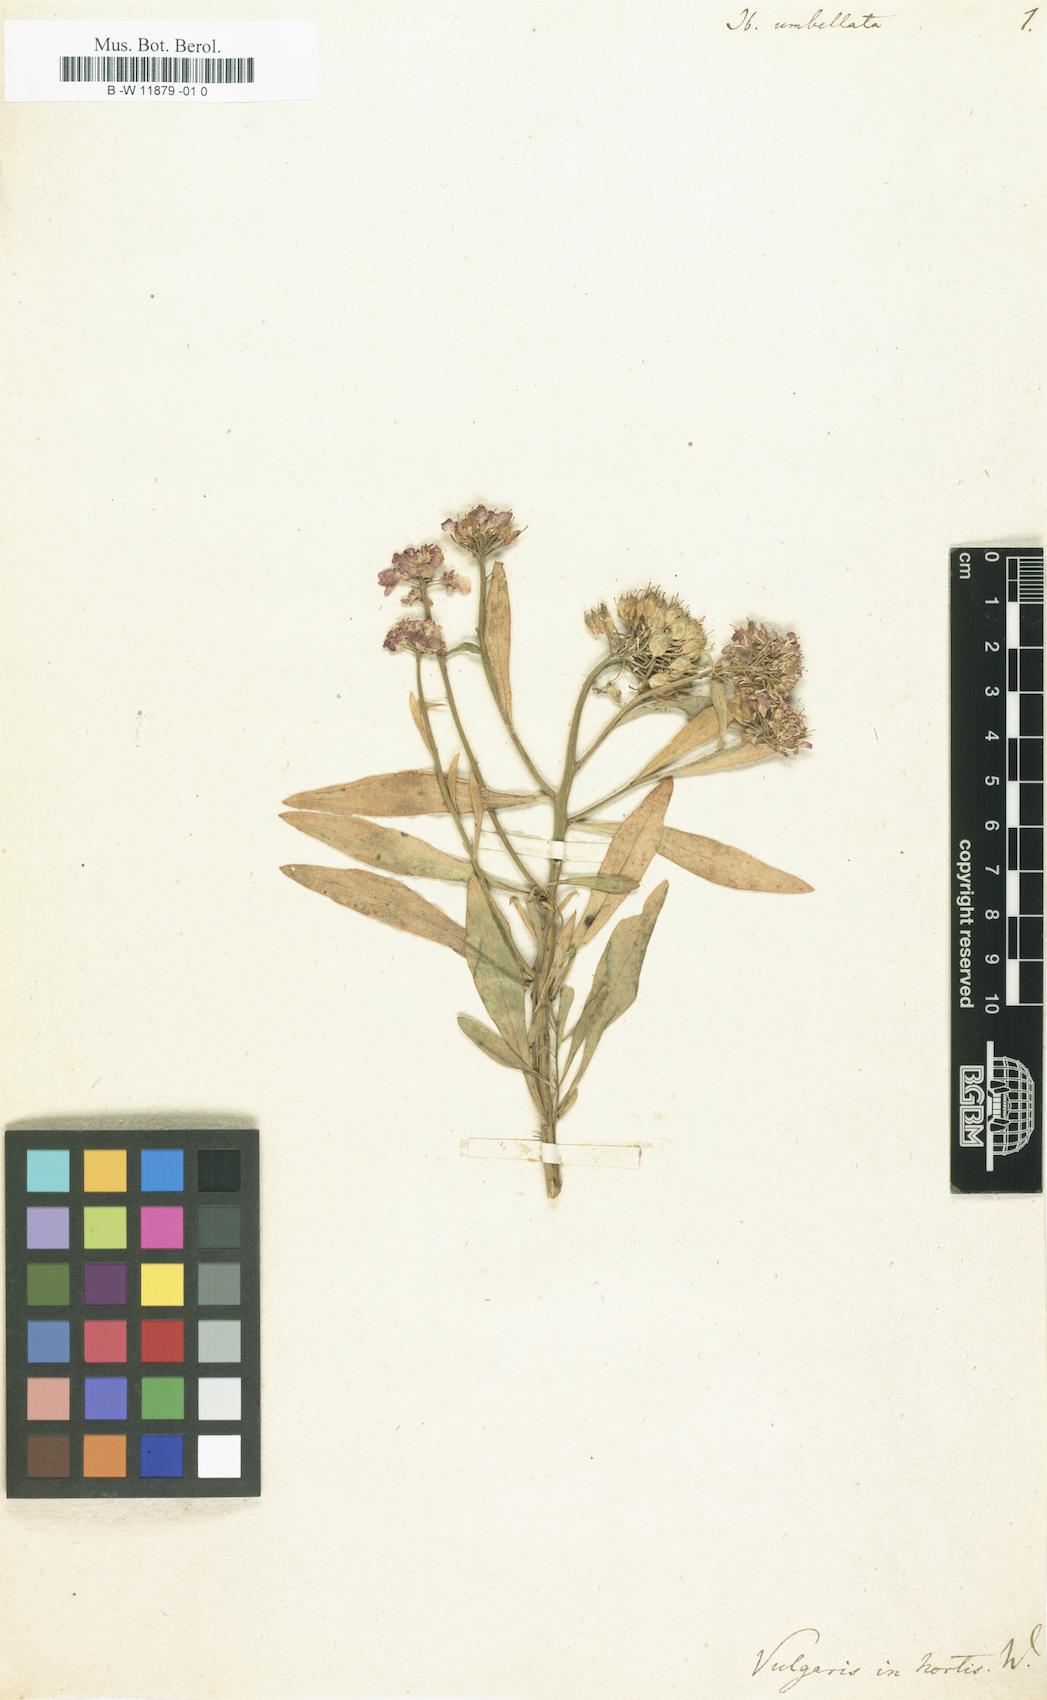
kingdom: Plantae
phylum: Tracheophyta
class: Magnoliopsida
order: Brassicales
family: Brassicaceae
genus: Iberis
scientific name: Iberis umbellata
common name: Globe candytuft
